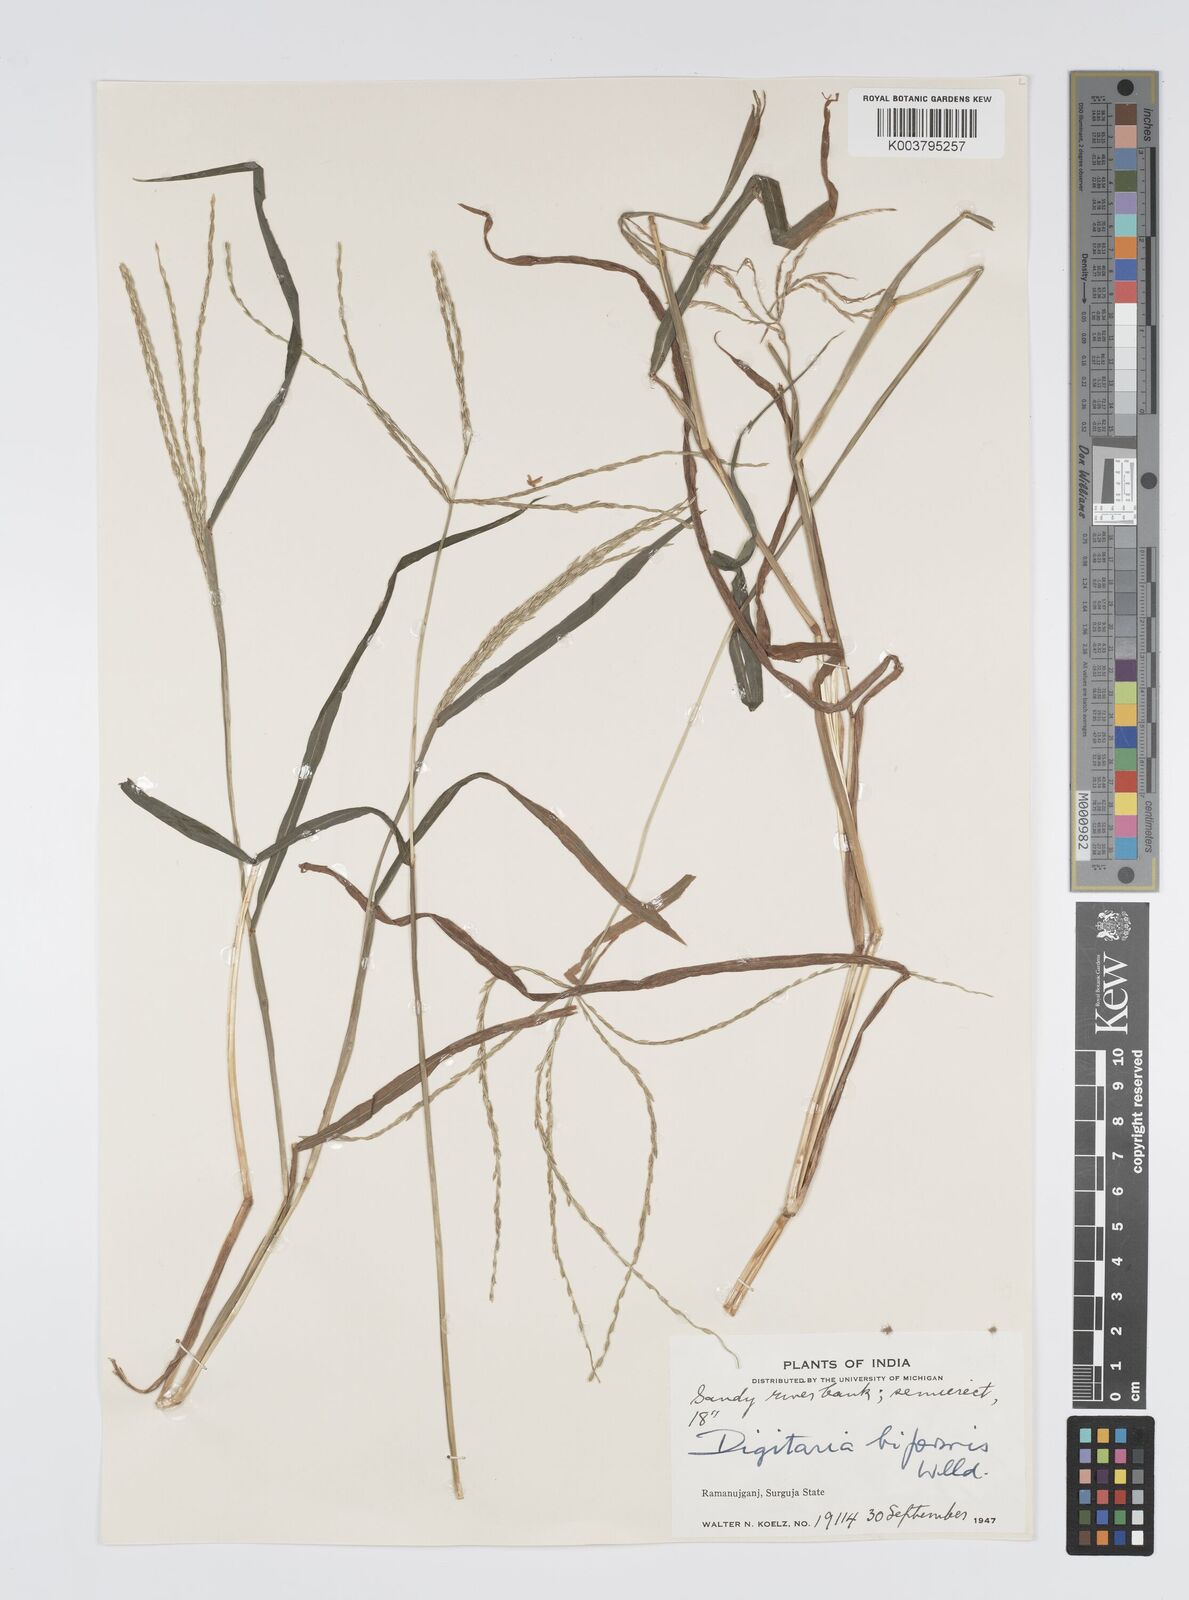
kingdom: Plantae
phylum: Tracheophyta
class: Liliopsida
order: Poales
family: Poaceae
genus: Digitaria
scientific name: Digitaria ciliaris
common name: Tropical finger-grass
